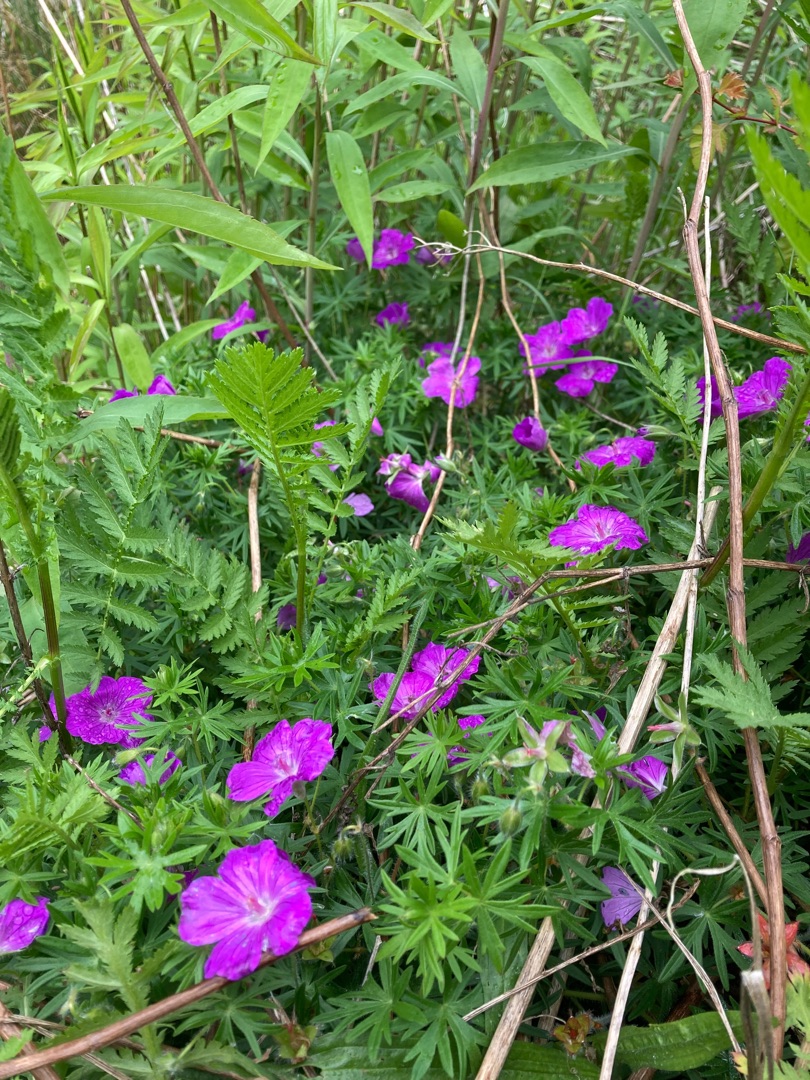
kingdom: Plantae
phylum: Tracheophyta
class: Magnoliopsida
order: Geraniales
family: Geraniaceae
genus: Geranium
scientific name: Geranium sanguineum
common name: Blodrød storkenæb
